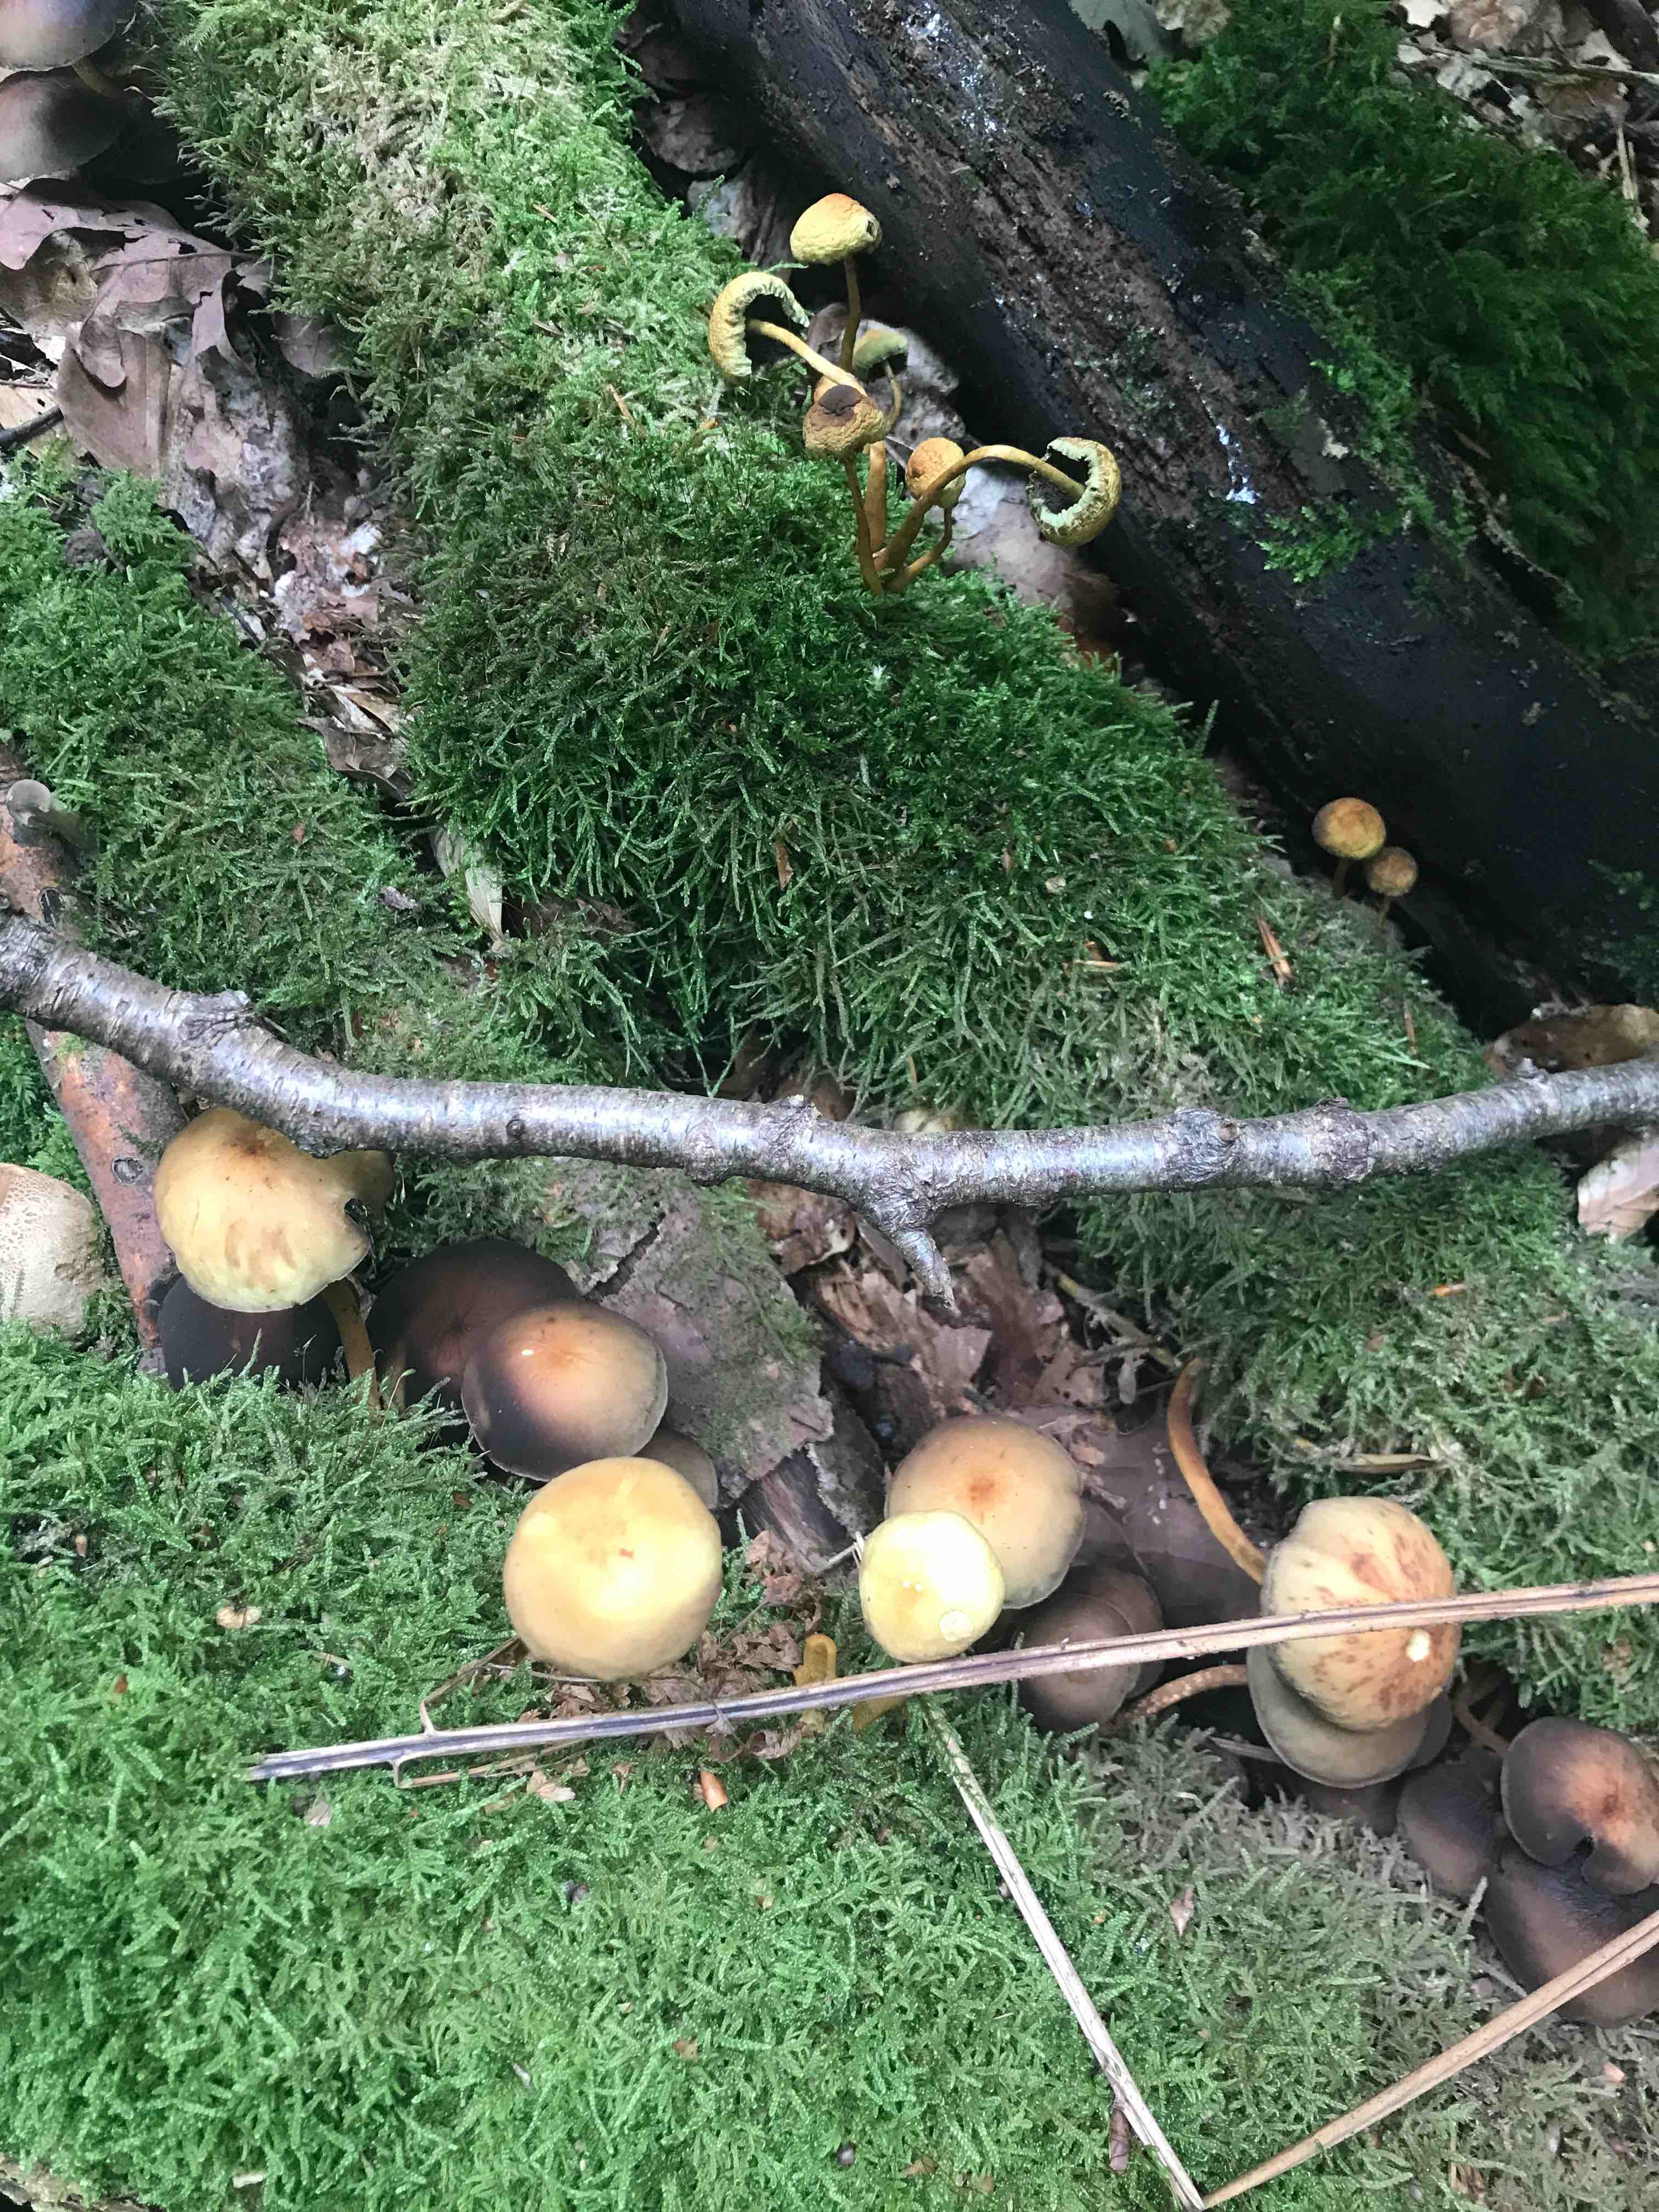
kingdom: Fungi
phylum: Basidiomycota
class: Agaricomycetes
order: Agaricales
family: Strophariaceae
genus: Hypholoma
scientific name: Hypholoma fasciculare
